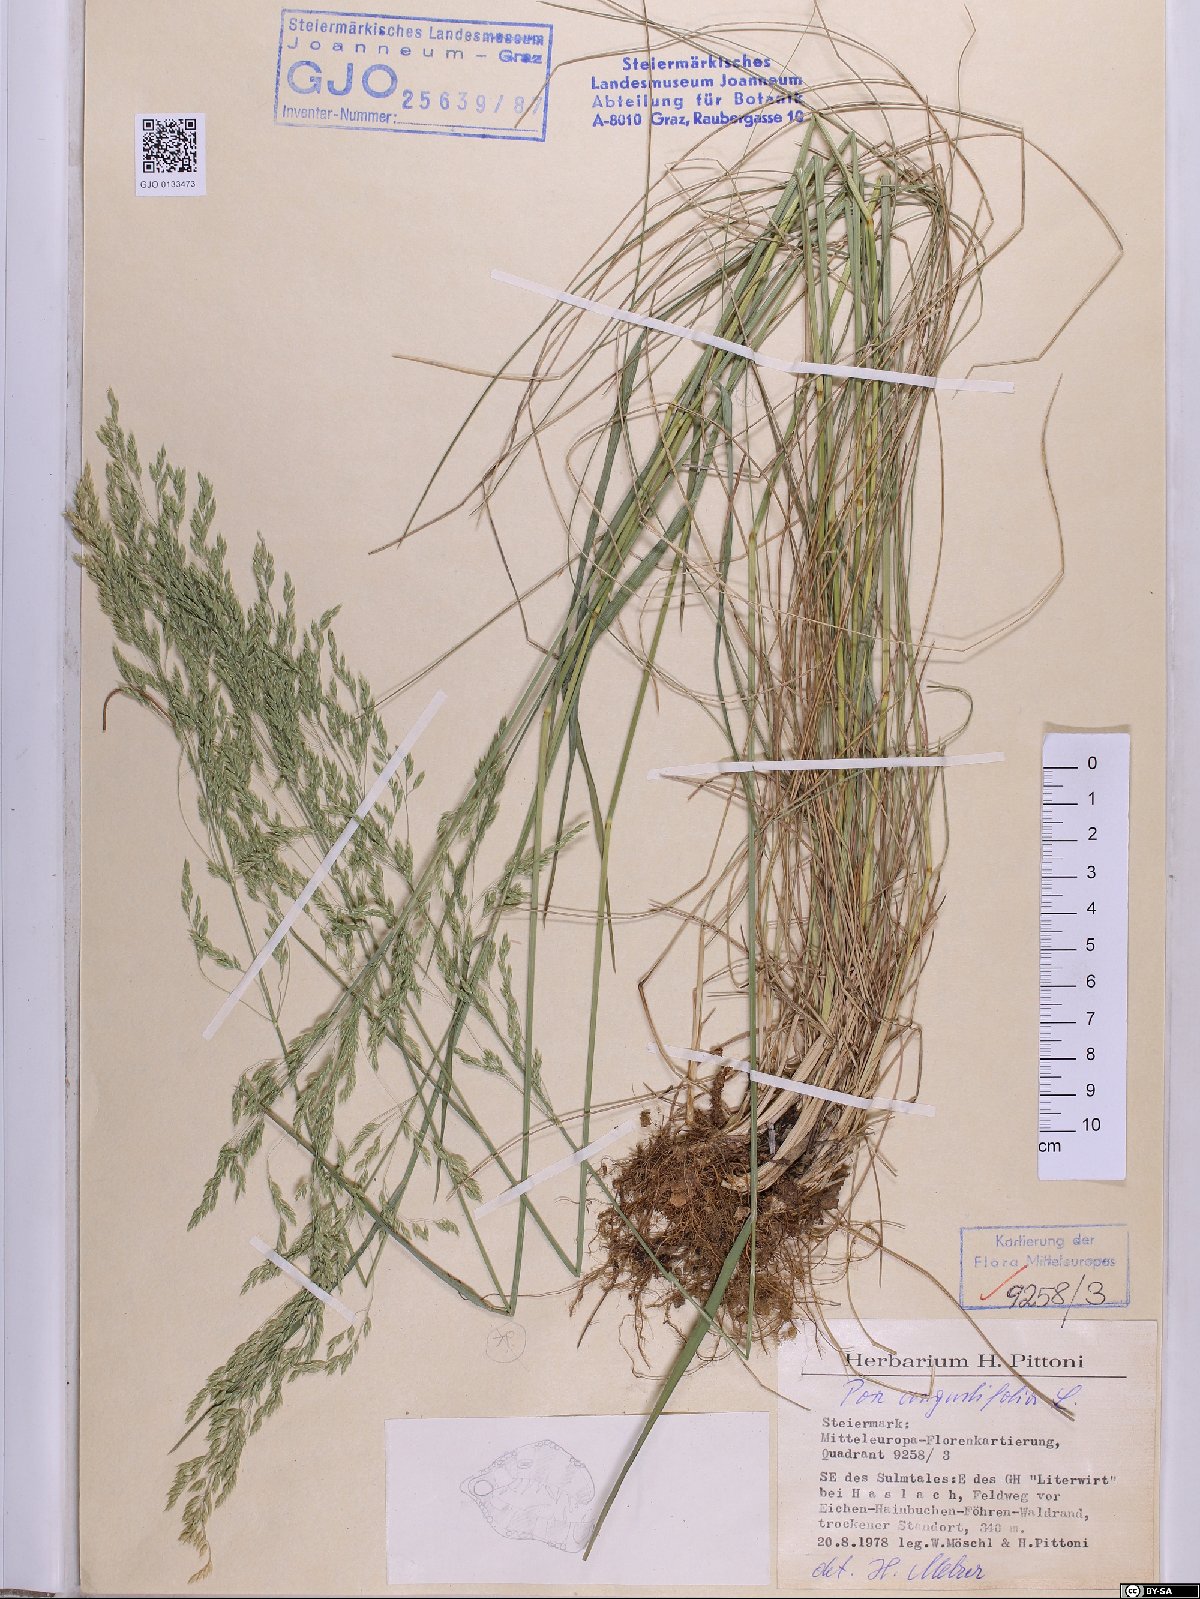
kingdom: Plantae
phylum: Tracheophyta
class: Liliopsida
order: Poales
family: Poaceae
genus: Poa
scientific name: Poa angustifolia
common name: Narrow-leaved meadow-grass
